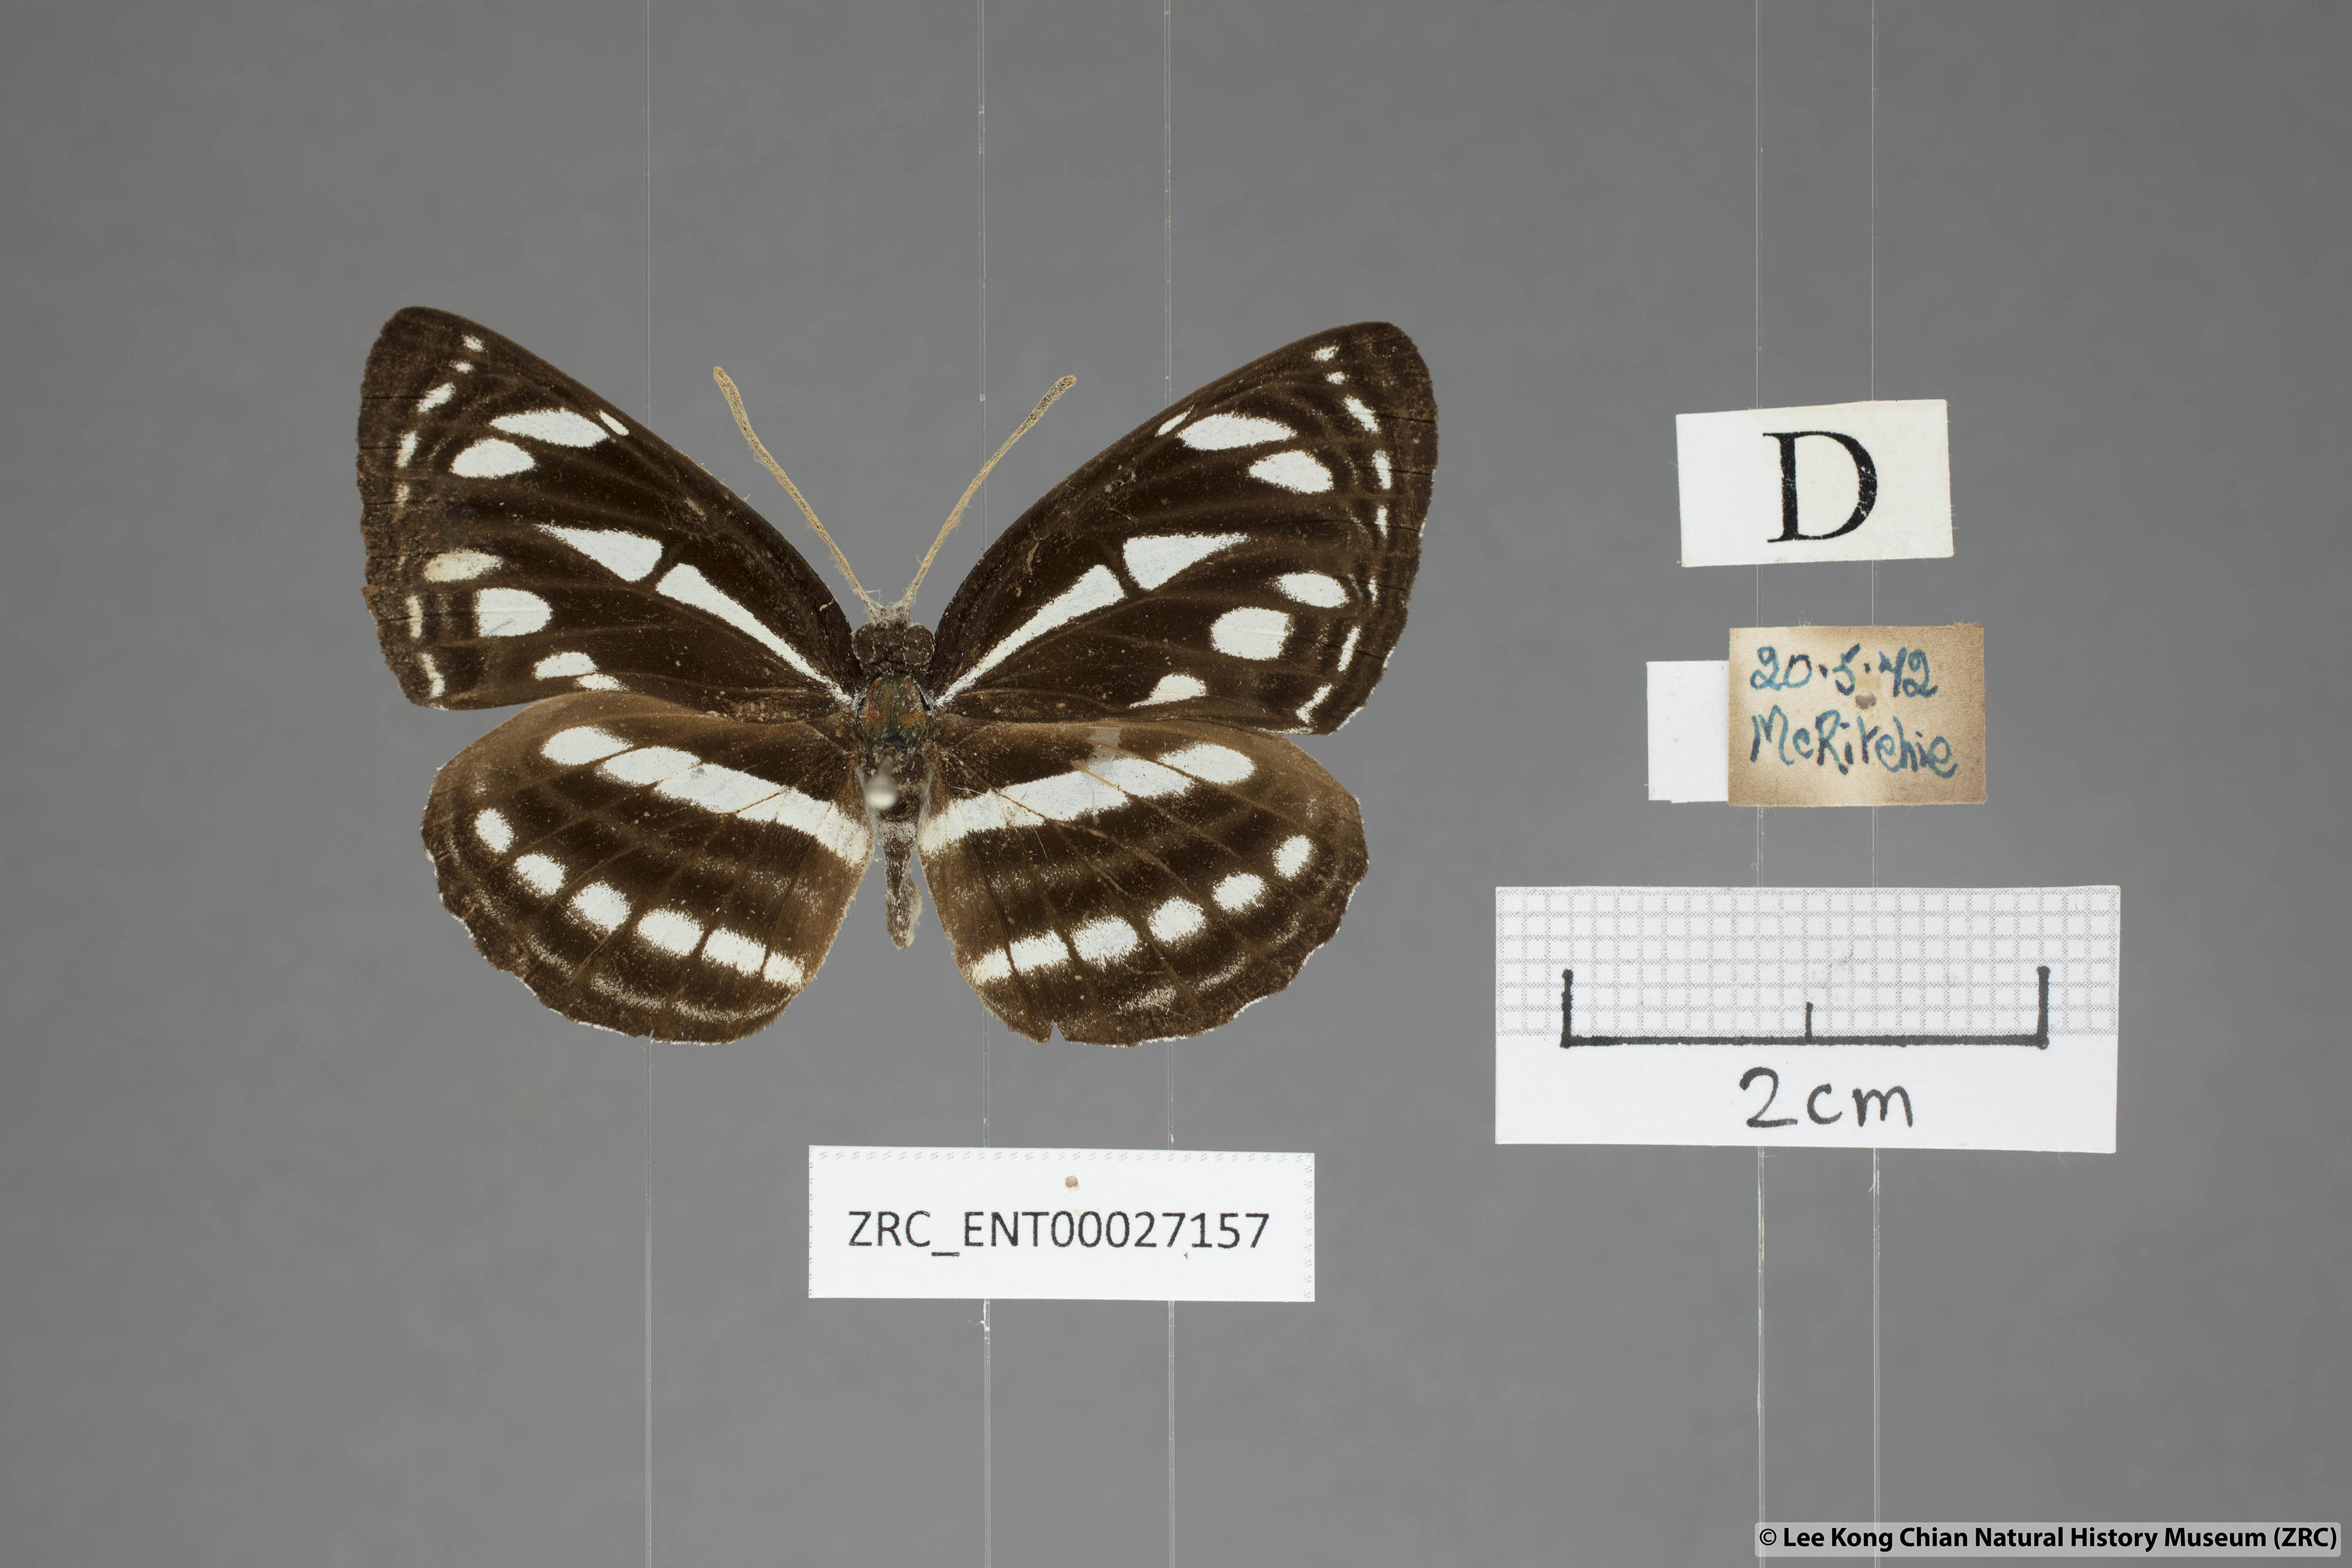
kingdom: Animalia
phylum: Arthropoda
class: Insecta
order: Lepidoptera
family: Nymphalidae
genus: Neptis
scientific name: Neptis leucoporus
